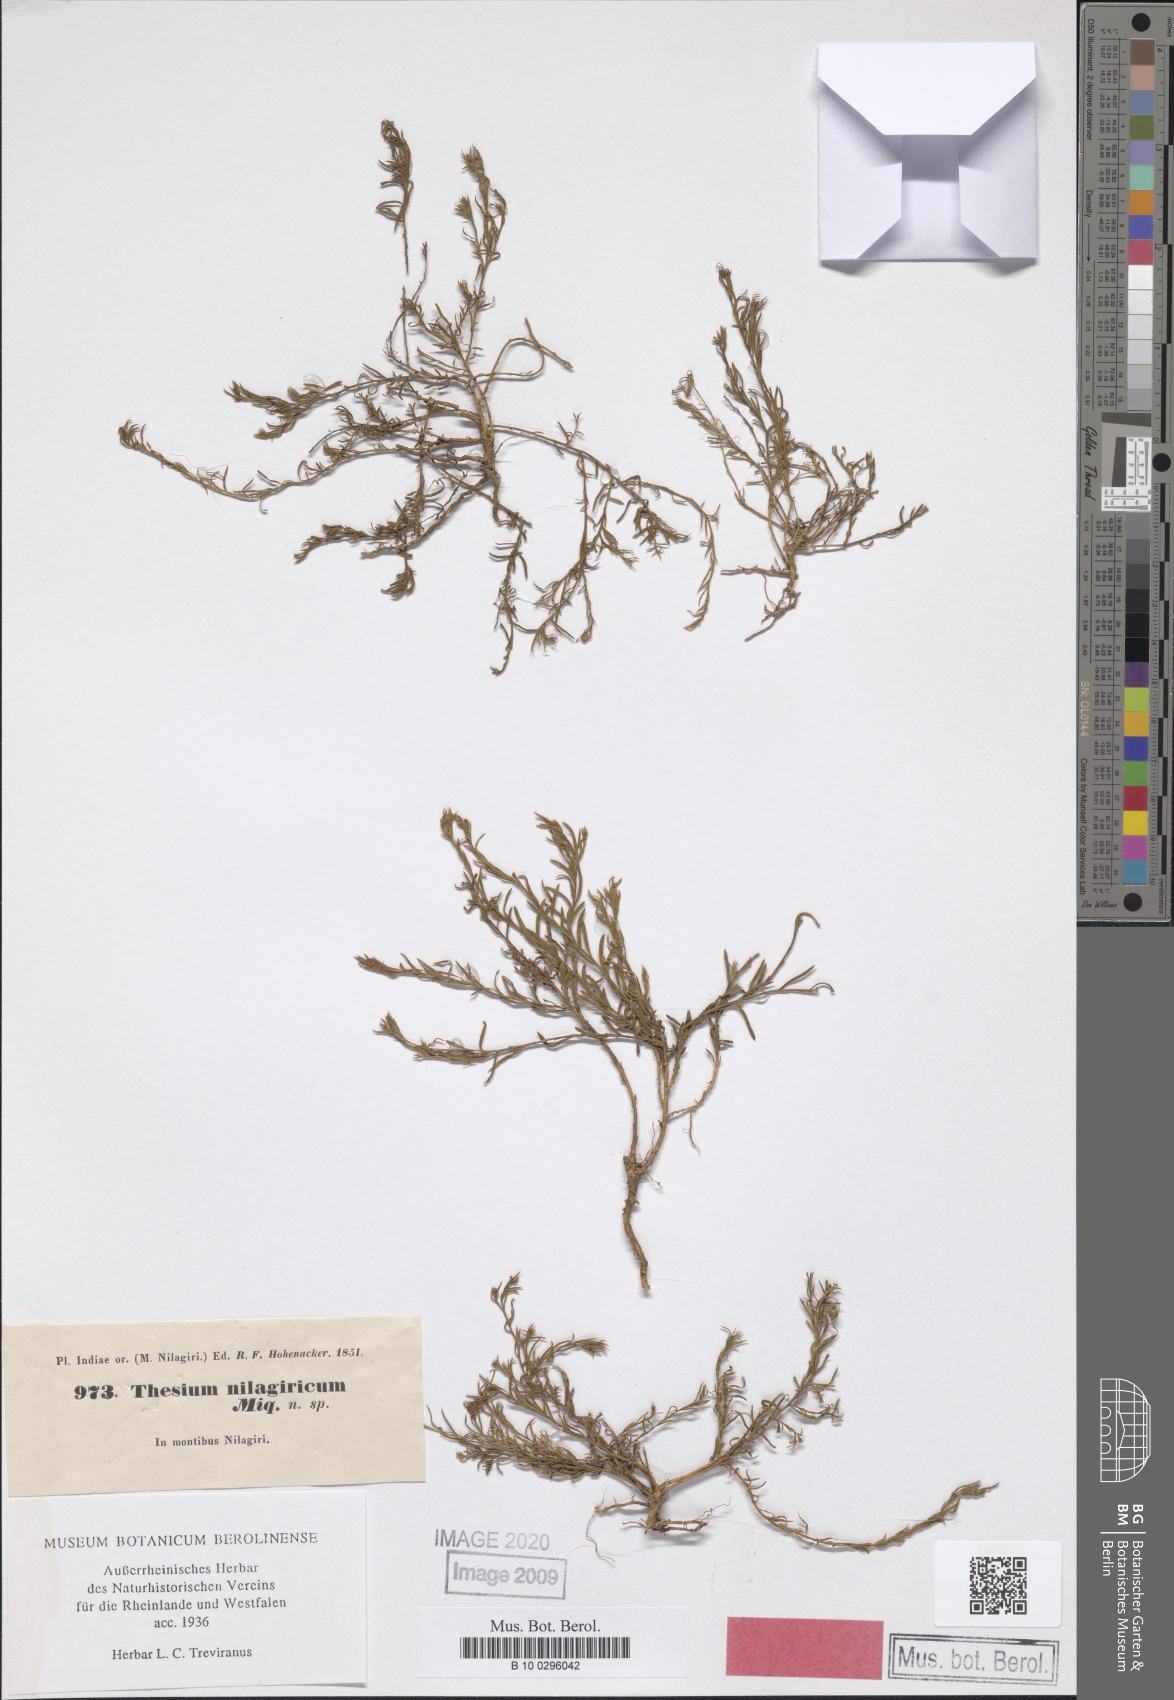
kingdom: Plantae
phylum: Tracheophyta
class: Magnoliopsida
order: Santalales
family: Thesiaceae
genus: Thesium
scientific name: Thesium wightianum
